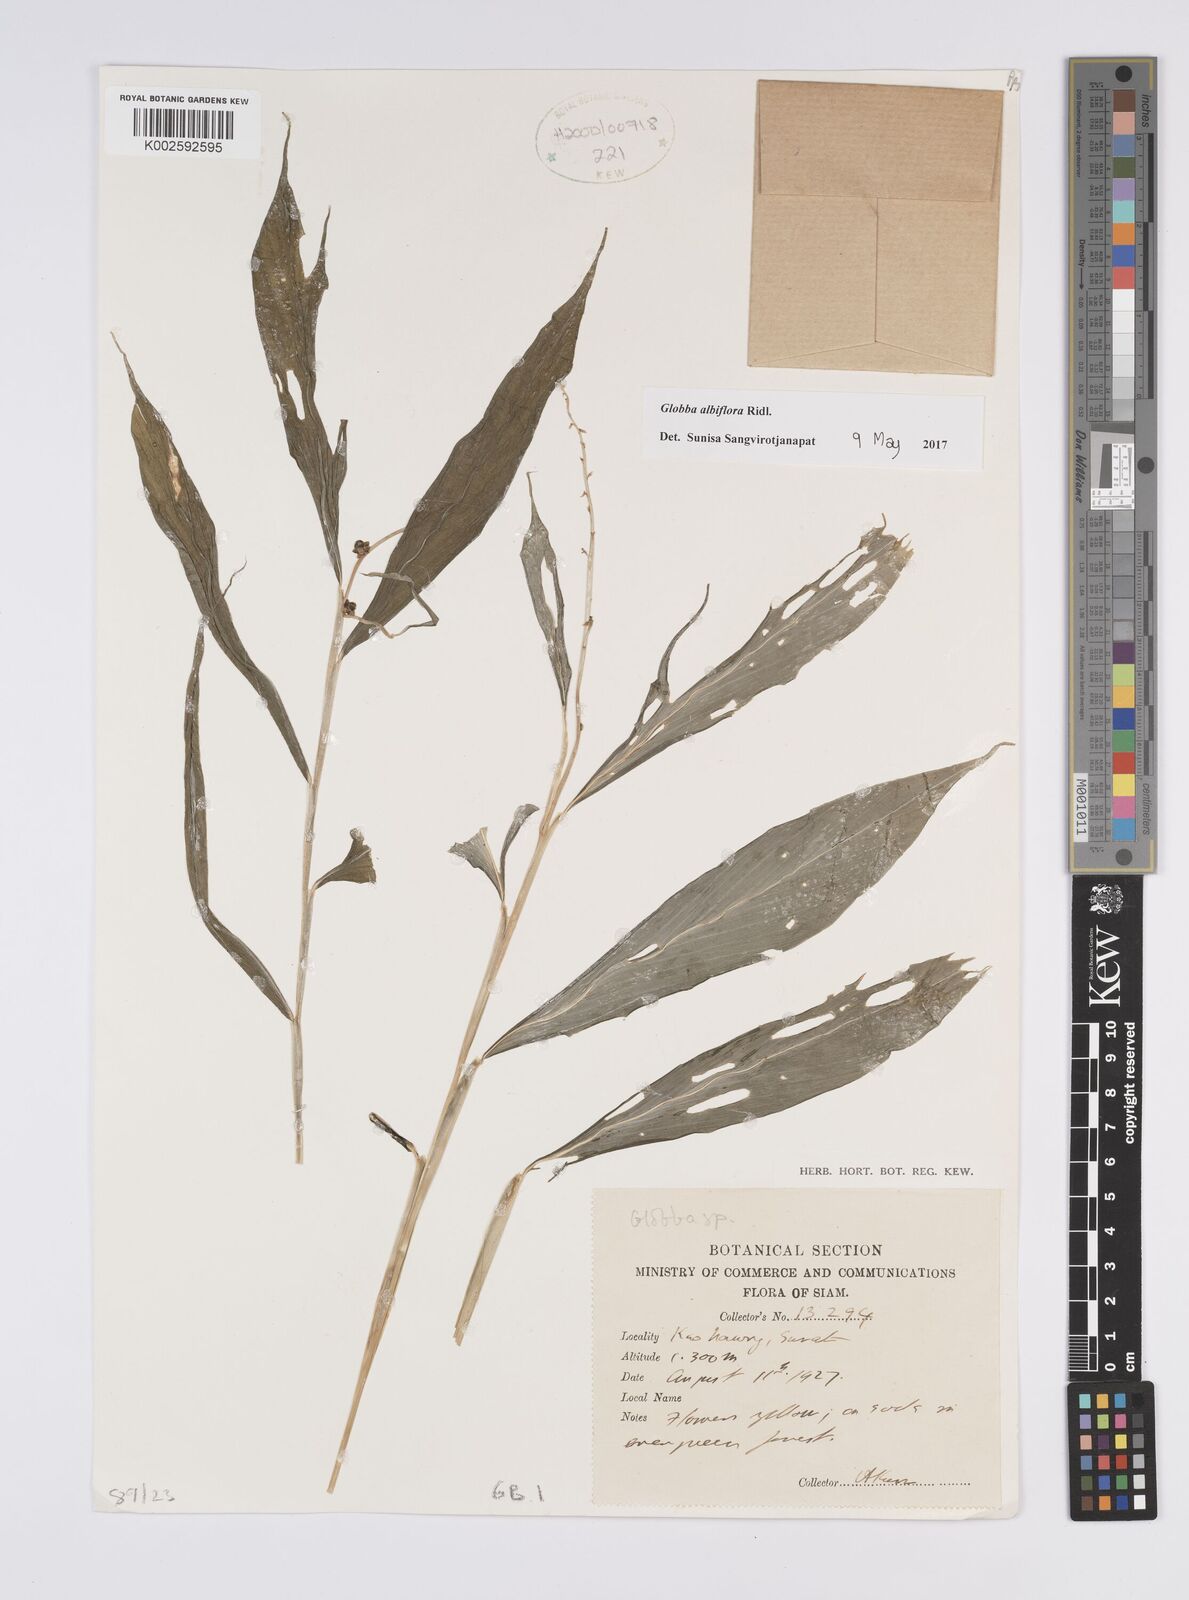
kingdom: Plantae
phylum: Tracheophyta
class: Liliopsida
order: Zingiberales
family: Zingiberaceae
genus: Globba
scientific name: Globba albiflora
